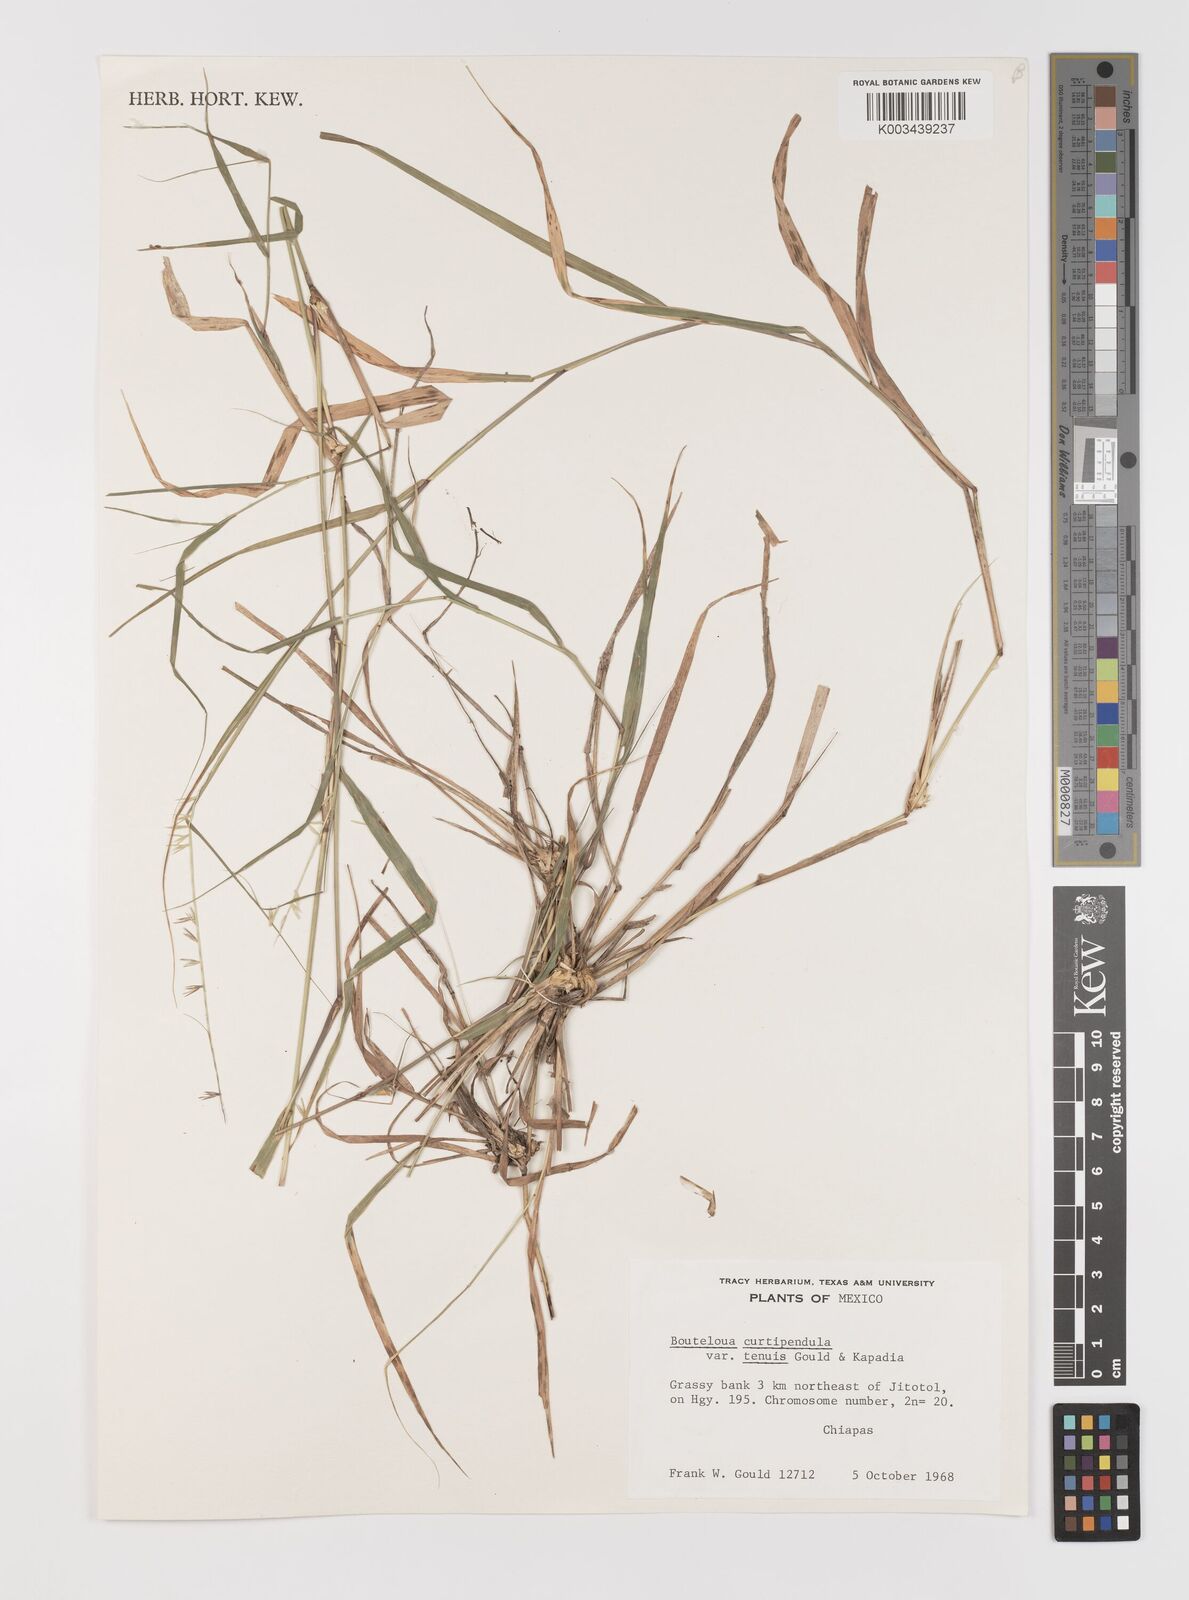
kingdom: Plantae
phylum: Tracheophyta
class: Liliopsida
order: Poales
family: Poaceae
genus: Bouteloua
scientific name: Bouteloua curtipendula
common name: Side-oats grama
